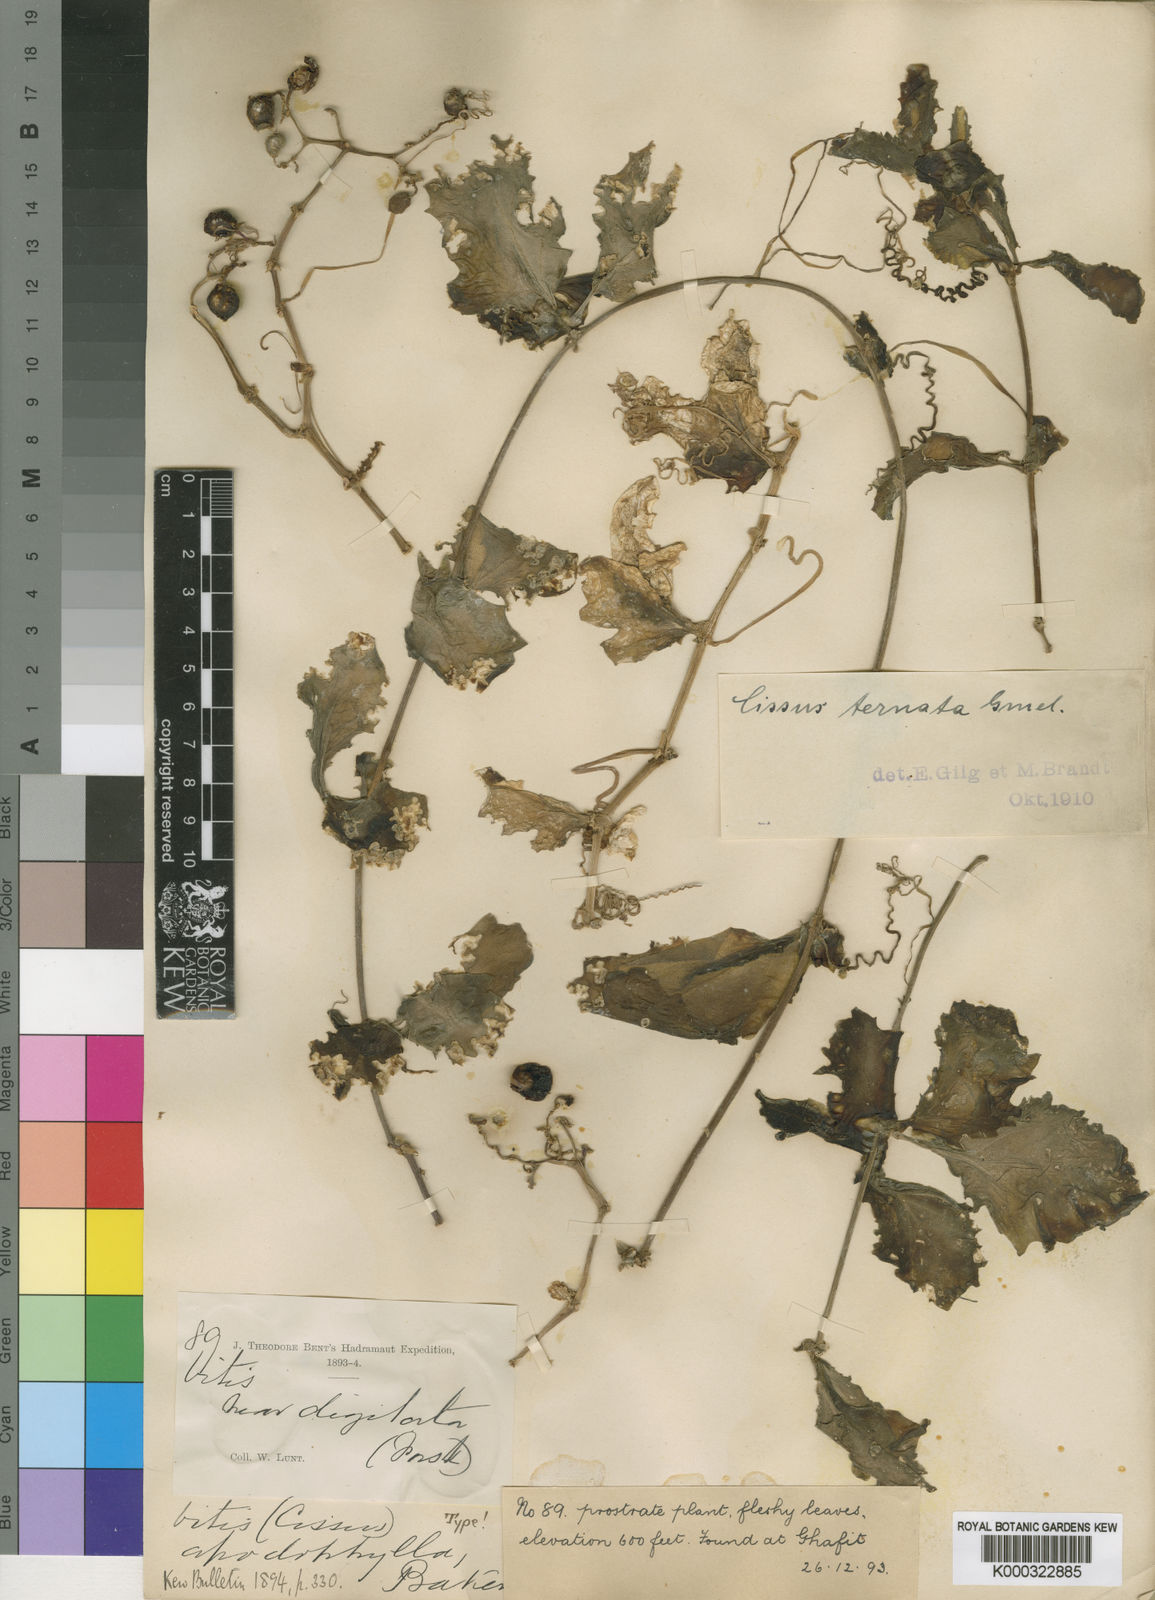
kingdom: Plantae
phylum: Tracheophyta
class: Magnoliopsida
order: Vitales
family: Vitaceae
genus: Cyphostemma
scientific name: Cyphostemma ternatum
